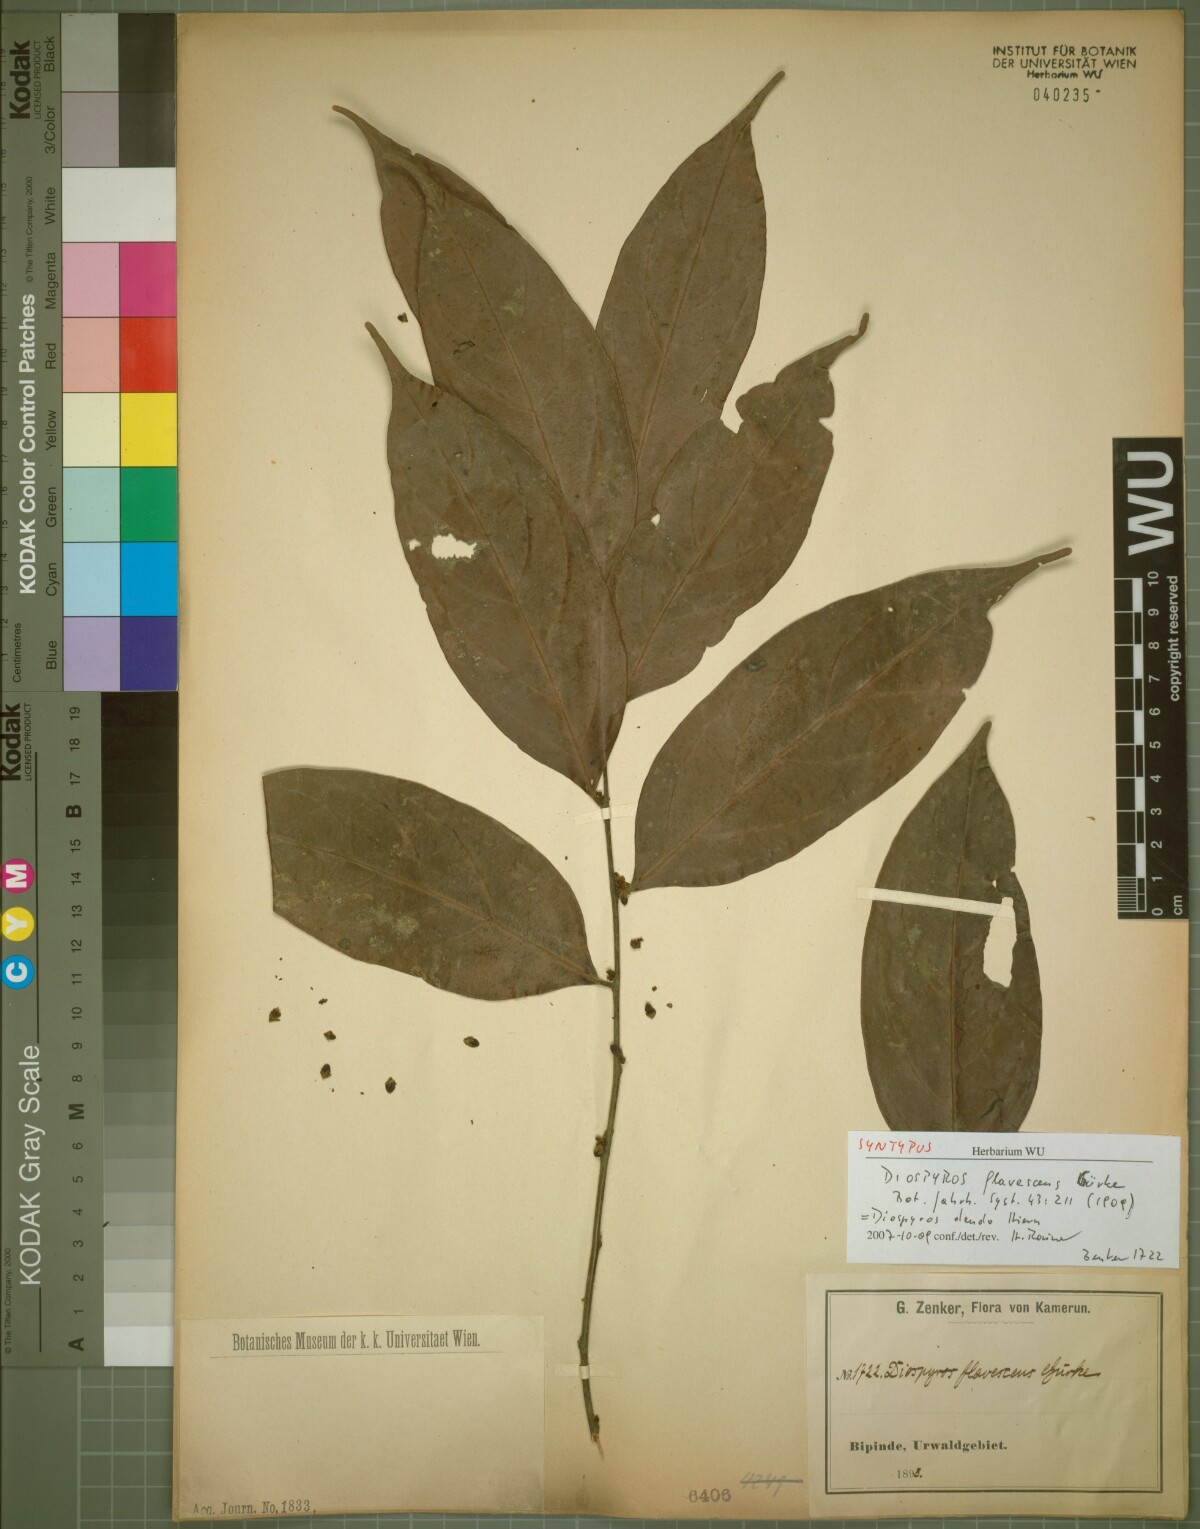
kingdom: Plantae
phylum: Tracheophyta
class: Magnoliopsida
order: Ericales
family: Ebenaceae
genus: Diospyros
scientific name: Diospyros dendo
